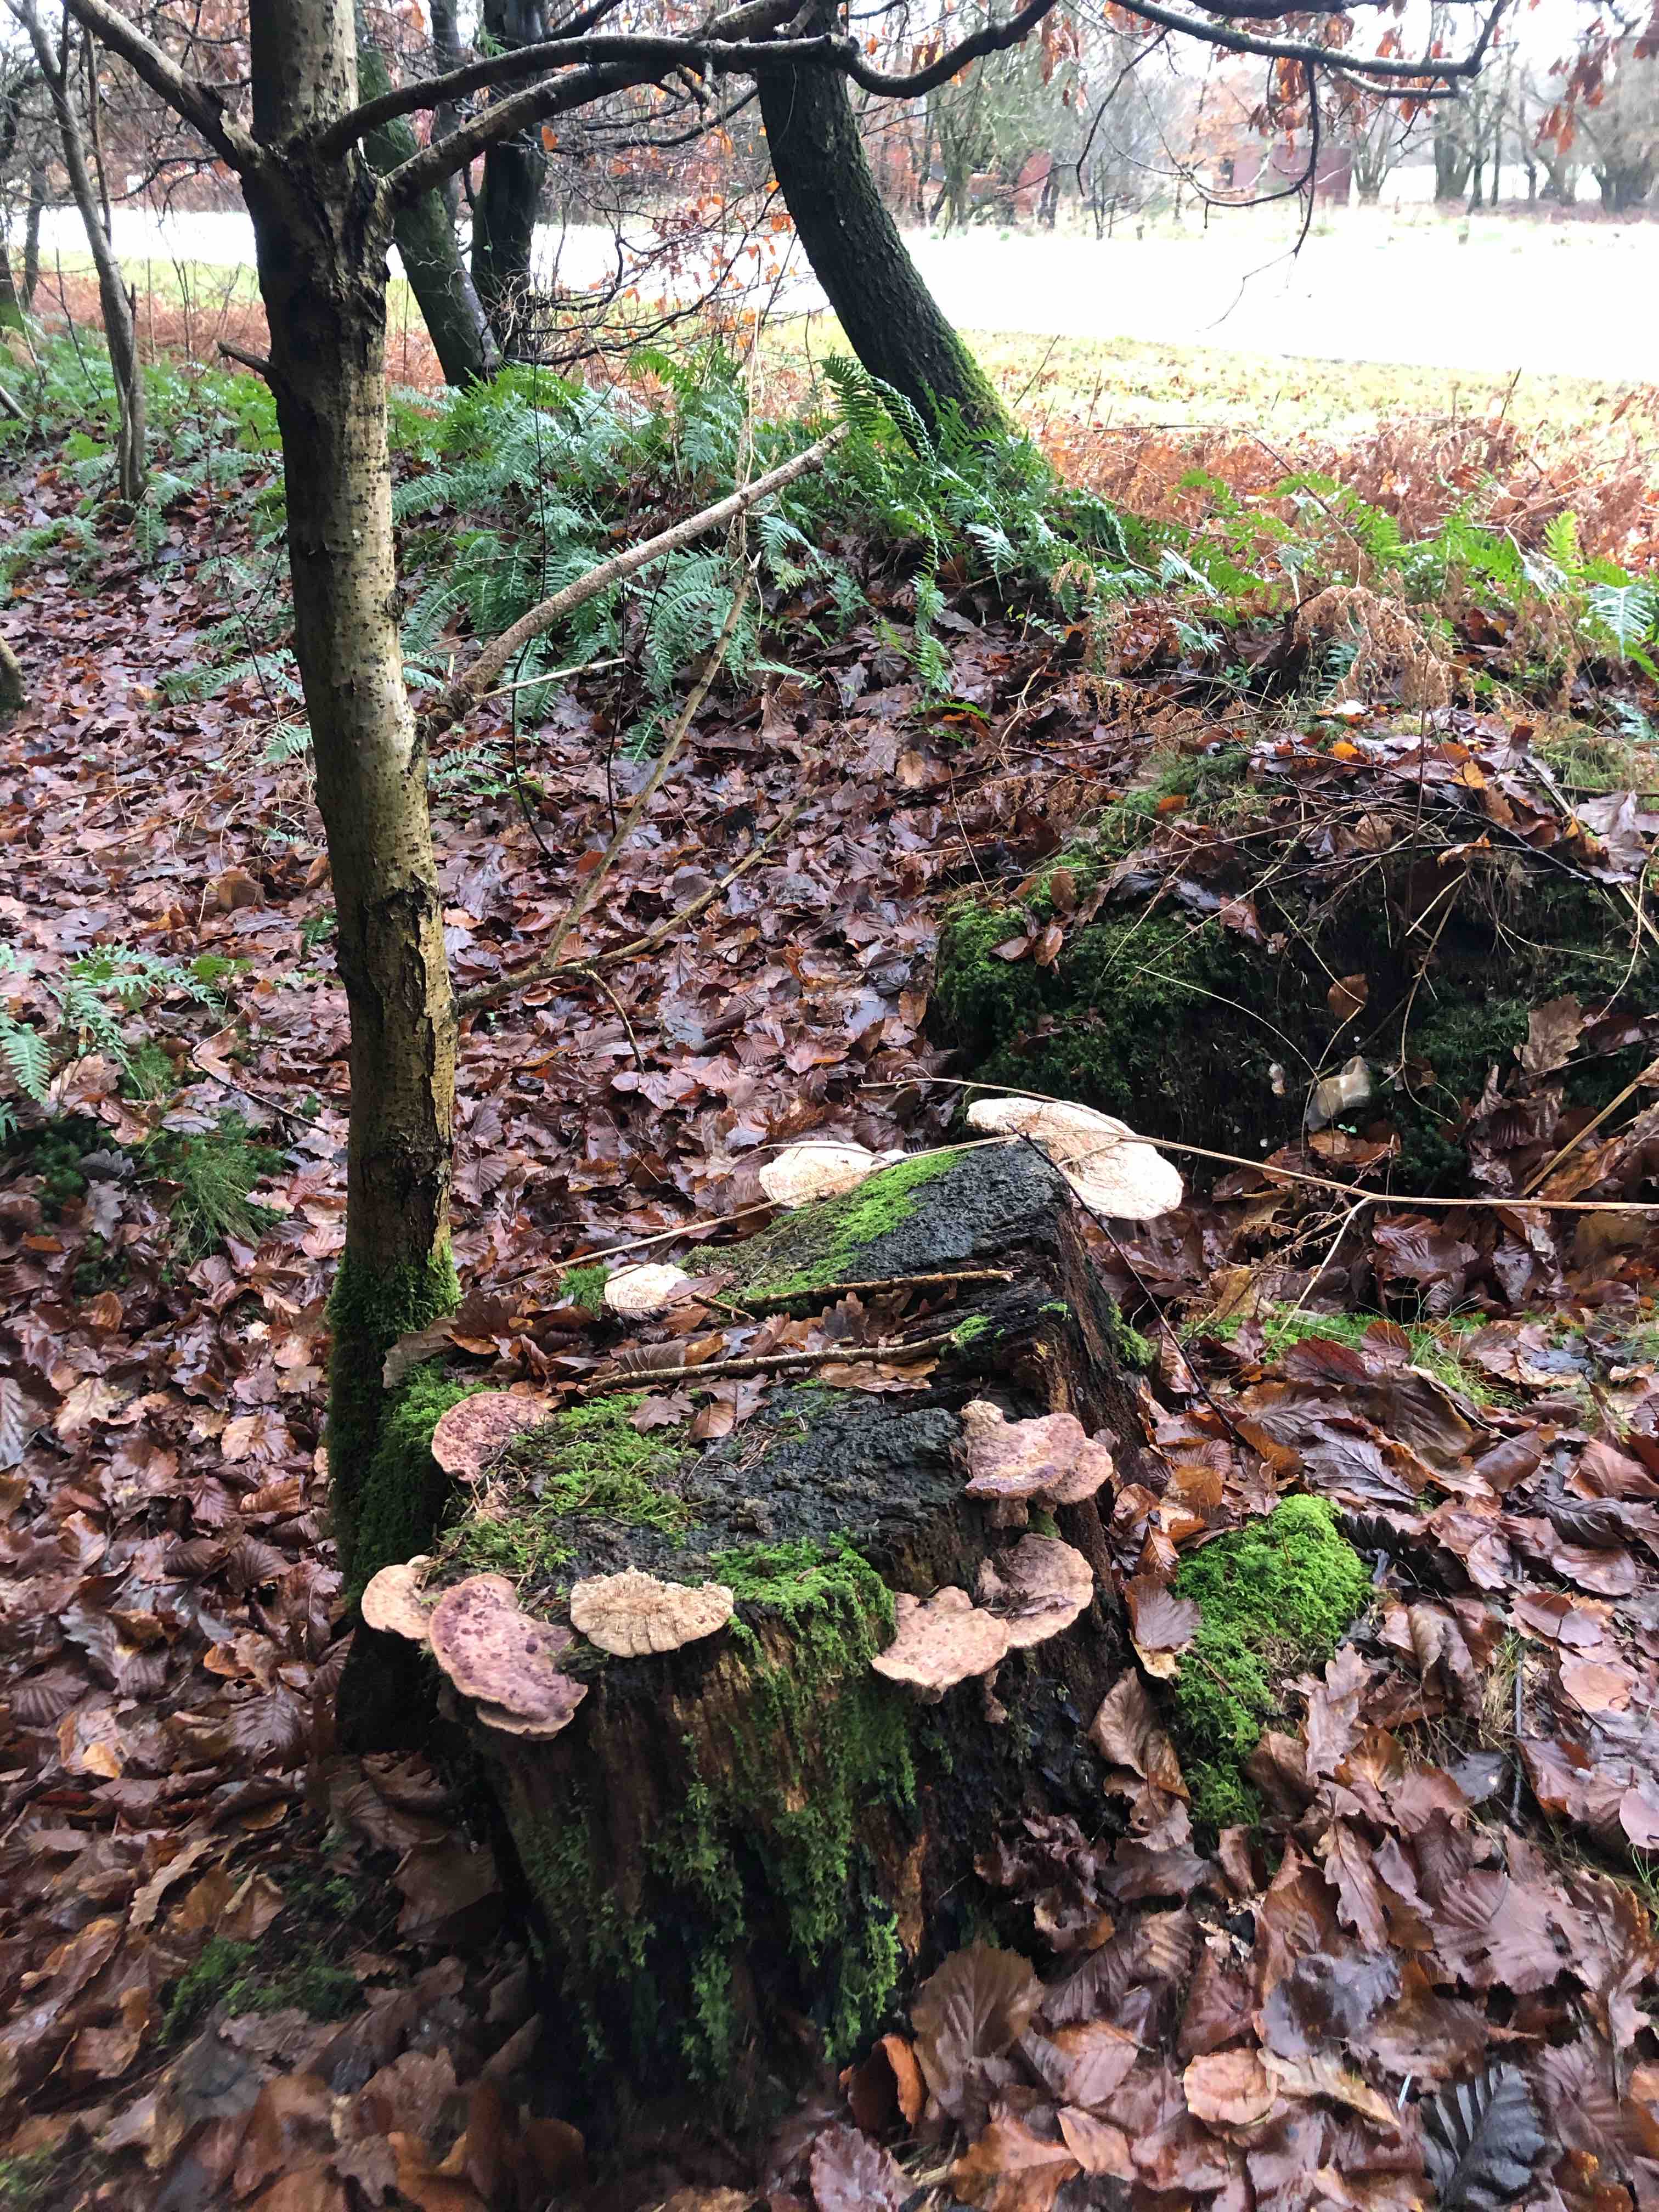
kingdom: Fungi
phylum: Basidiomycota
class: Agaricomycetes
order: Polyporales
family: Fomitopsidaceae
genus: Daedalea
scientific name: Daedalea quercina
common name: ege-labyrintsvamp
